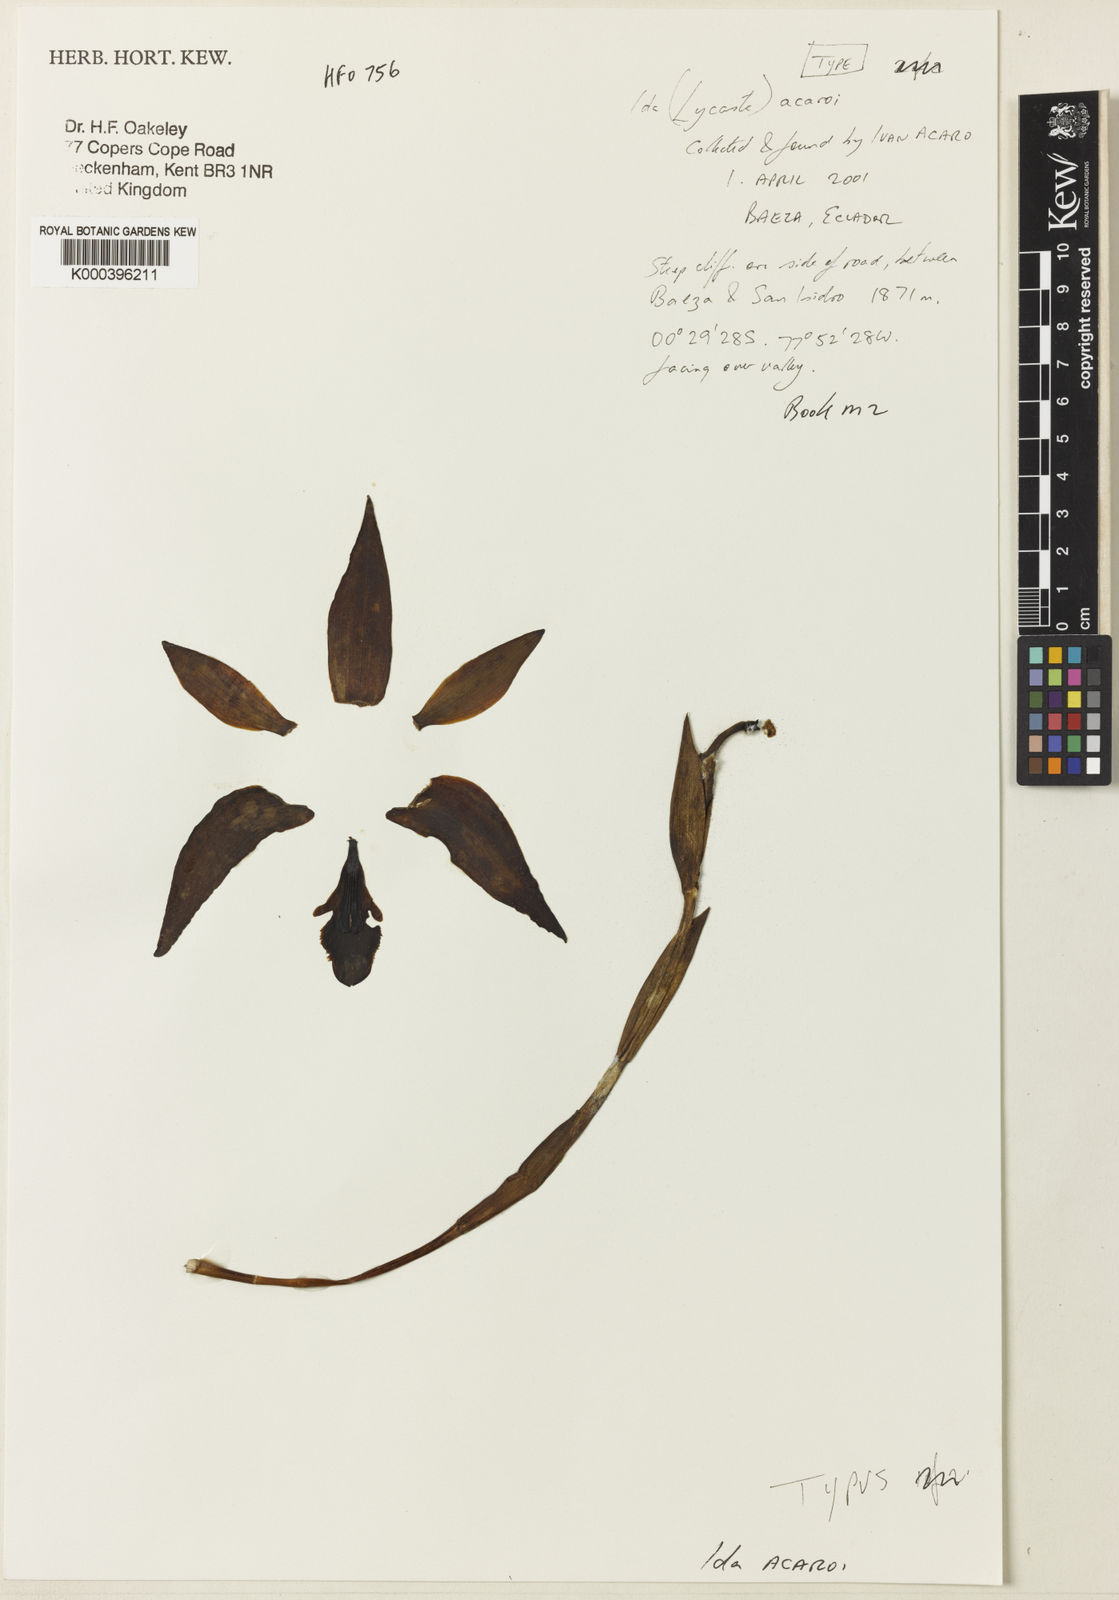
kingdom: Plantae
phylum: Tracheophyta
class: Liliopsida
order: Asparagales
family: Orchidaceae
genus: Ida
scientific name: Ida acaroi
